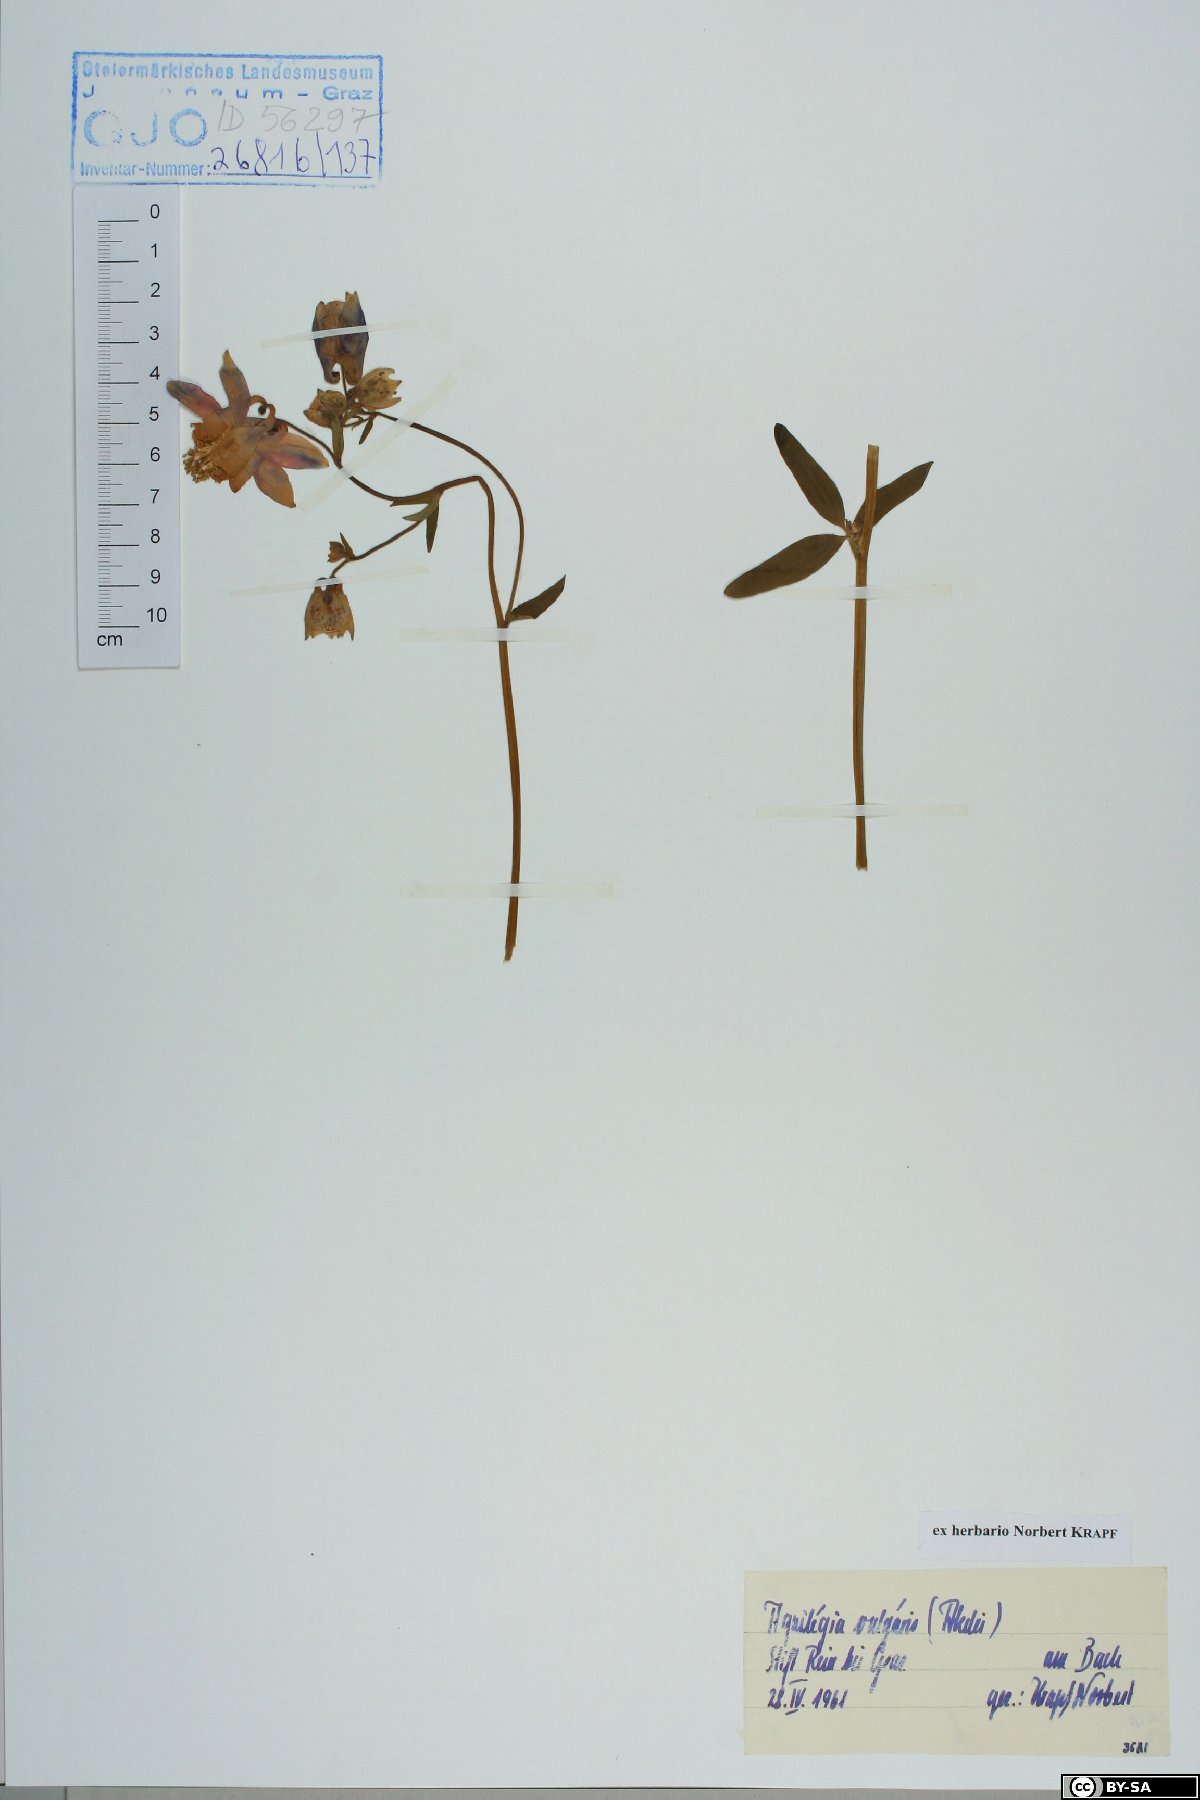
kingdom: Plantae
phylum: Tracheophyta
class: Magnoliopsida
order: Ranunculales
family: Ranunculaceae
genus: Aquilegia
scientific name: Aquilegia vulgaris
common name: Columbine
